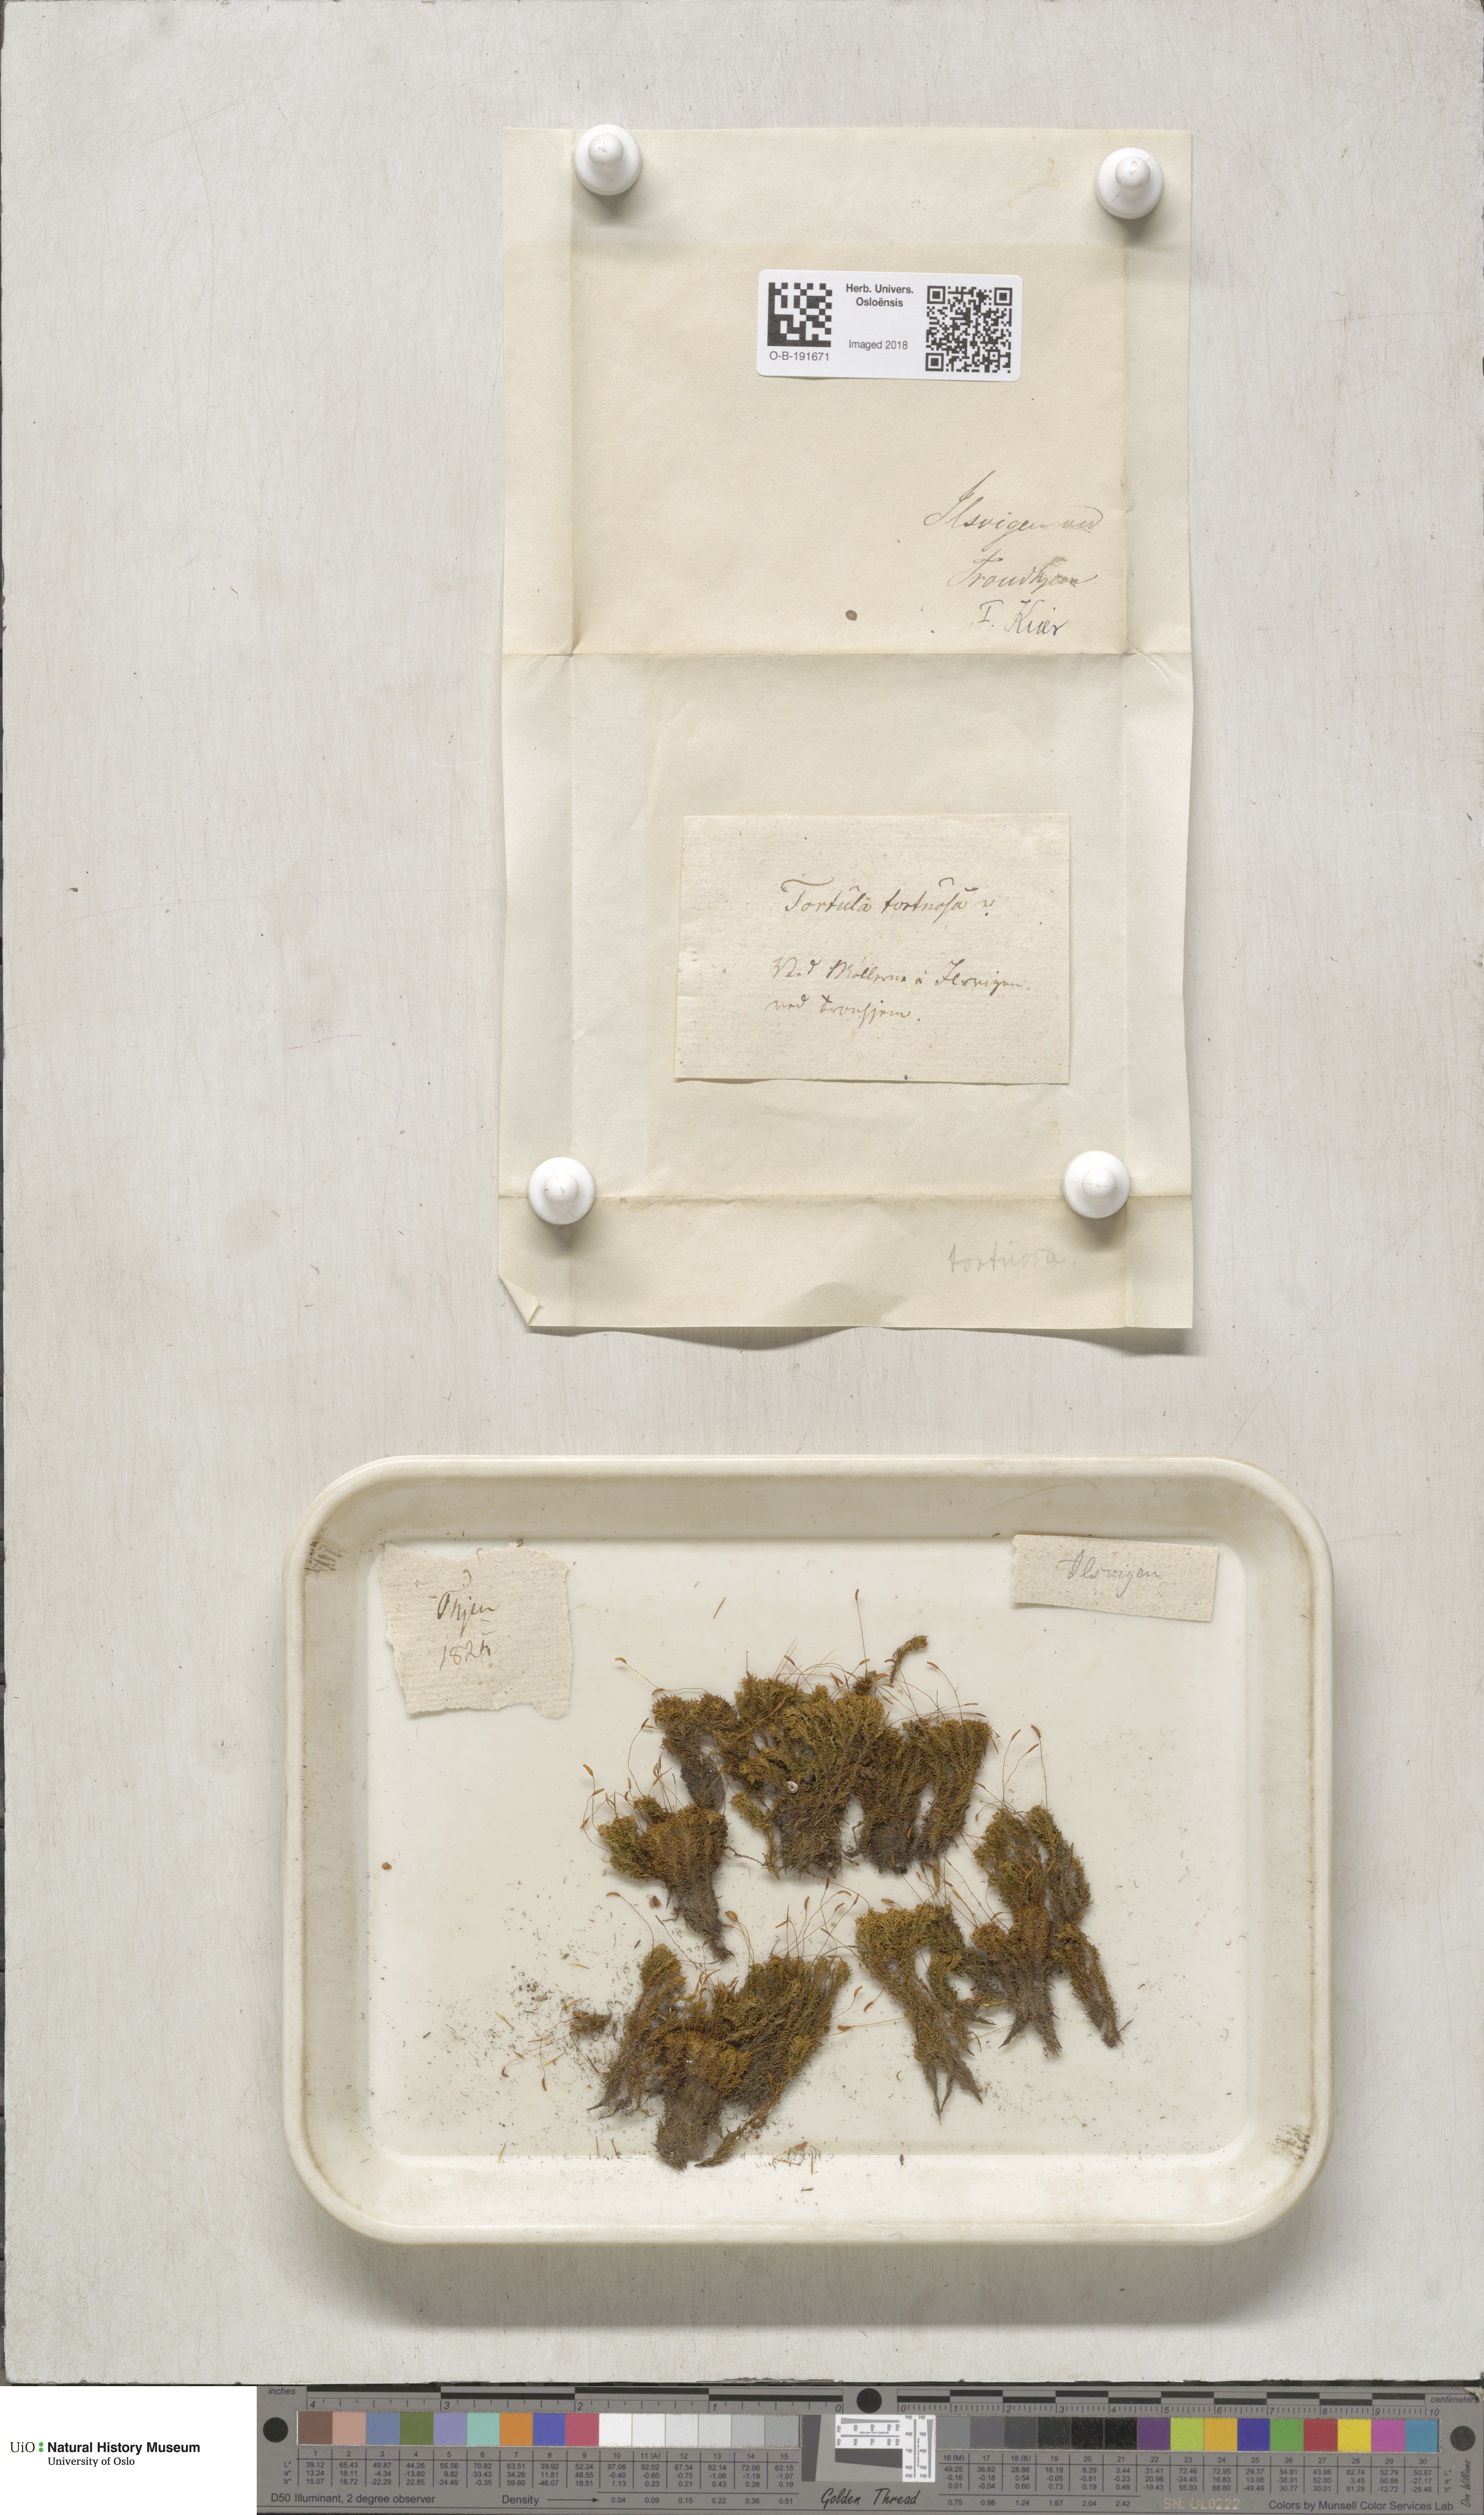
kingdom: Plantae
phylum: Bryophyta
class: Bryopsida
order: Pottiales
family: Pottiaceae
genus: Tortella
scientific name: Tortella tortuosa
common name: Frizzled crisp moss
